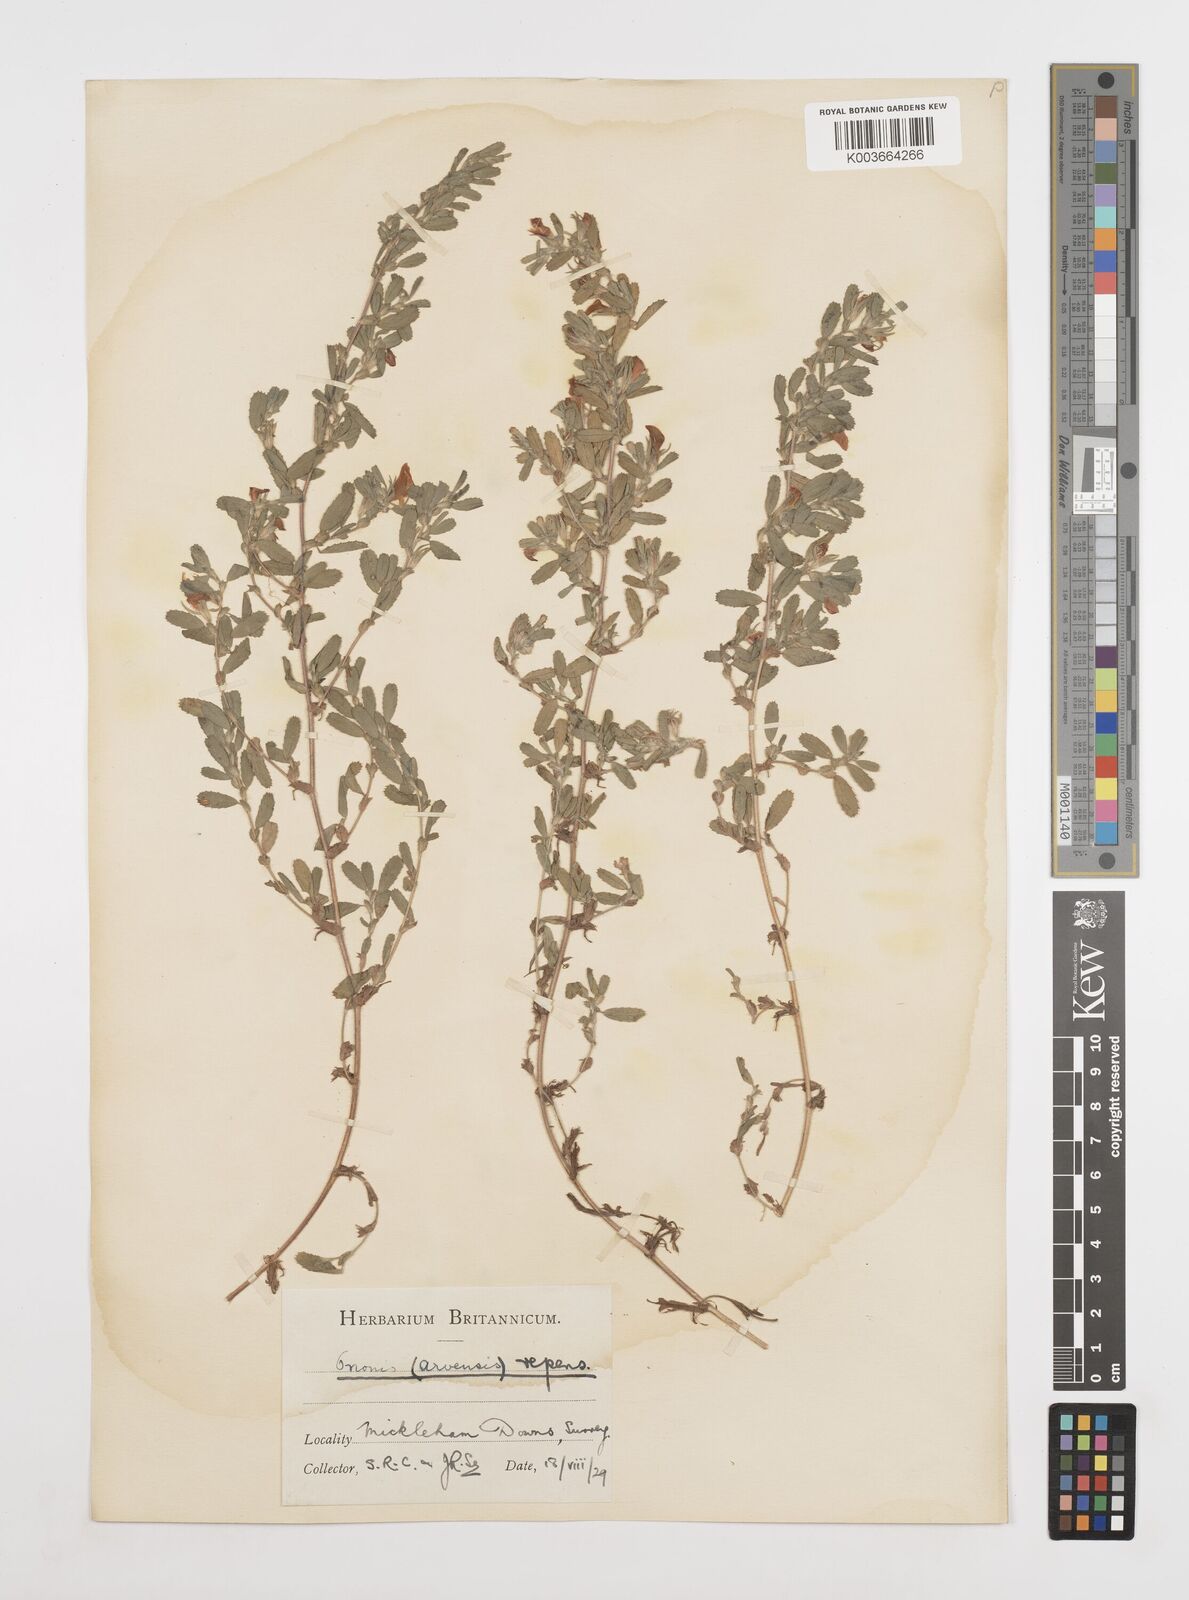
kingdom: Plantae
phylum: Tracheophyta
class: Magnoliopsida
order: Fabales
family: Fabaceae
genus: Ononis
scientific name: Ononis spinosa
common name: Spiny restharrow
